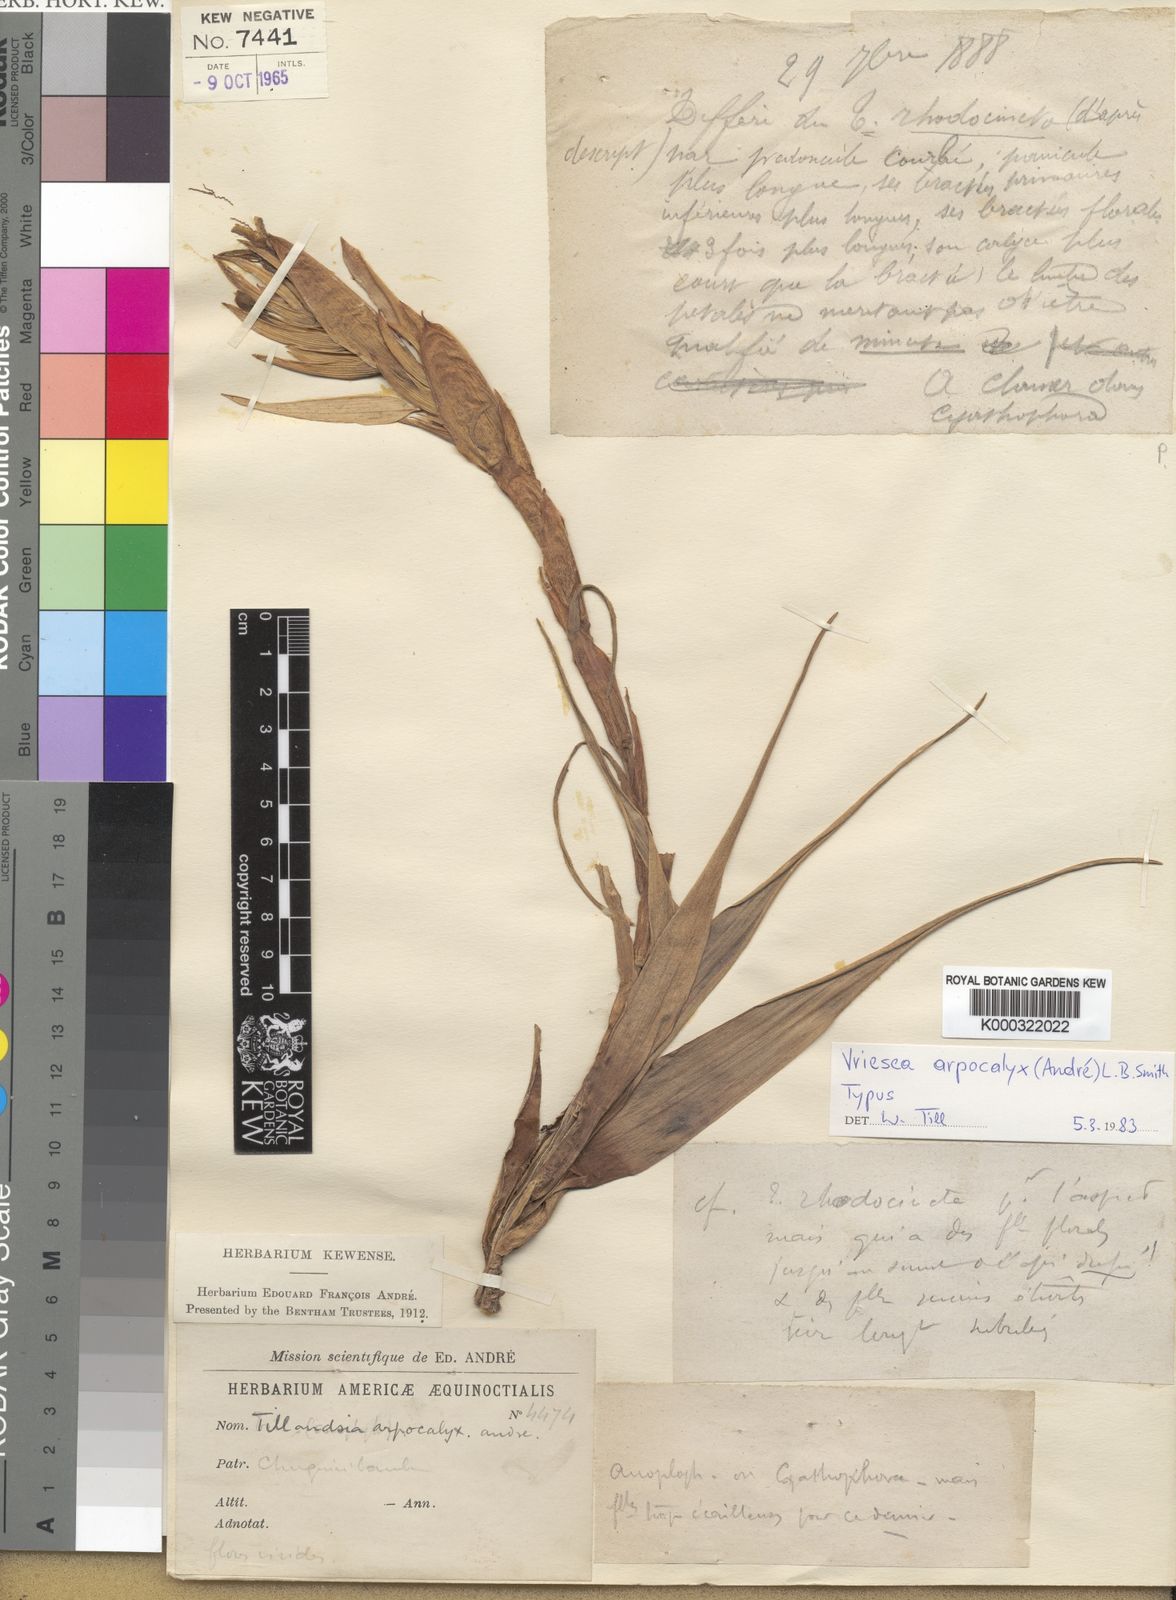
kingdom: Plantae
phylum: Tracheophyta
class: Liliopsida
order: Poales
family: Bromeliaceae
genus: Vriesea
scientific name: Vriesea
